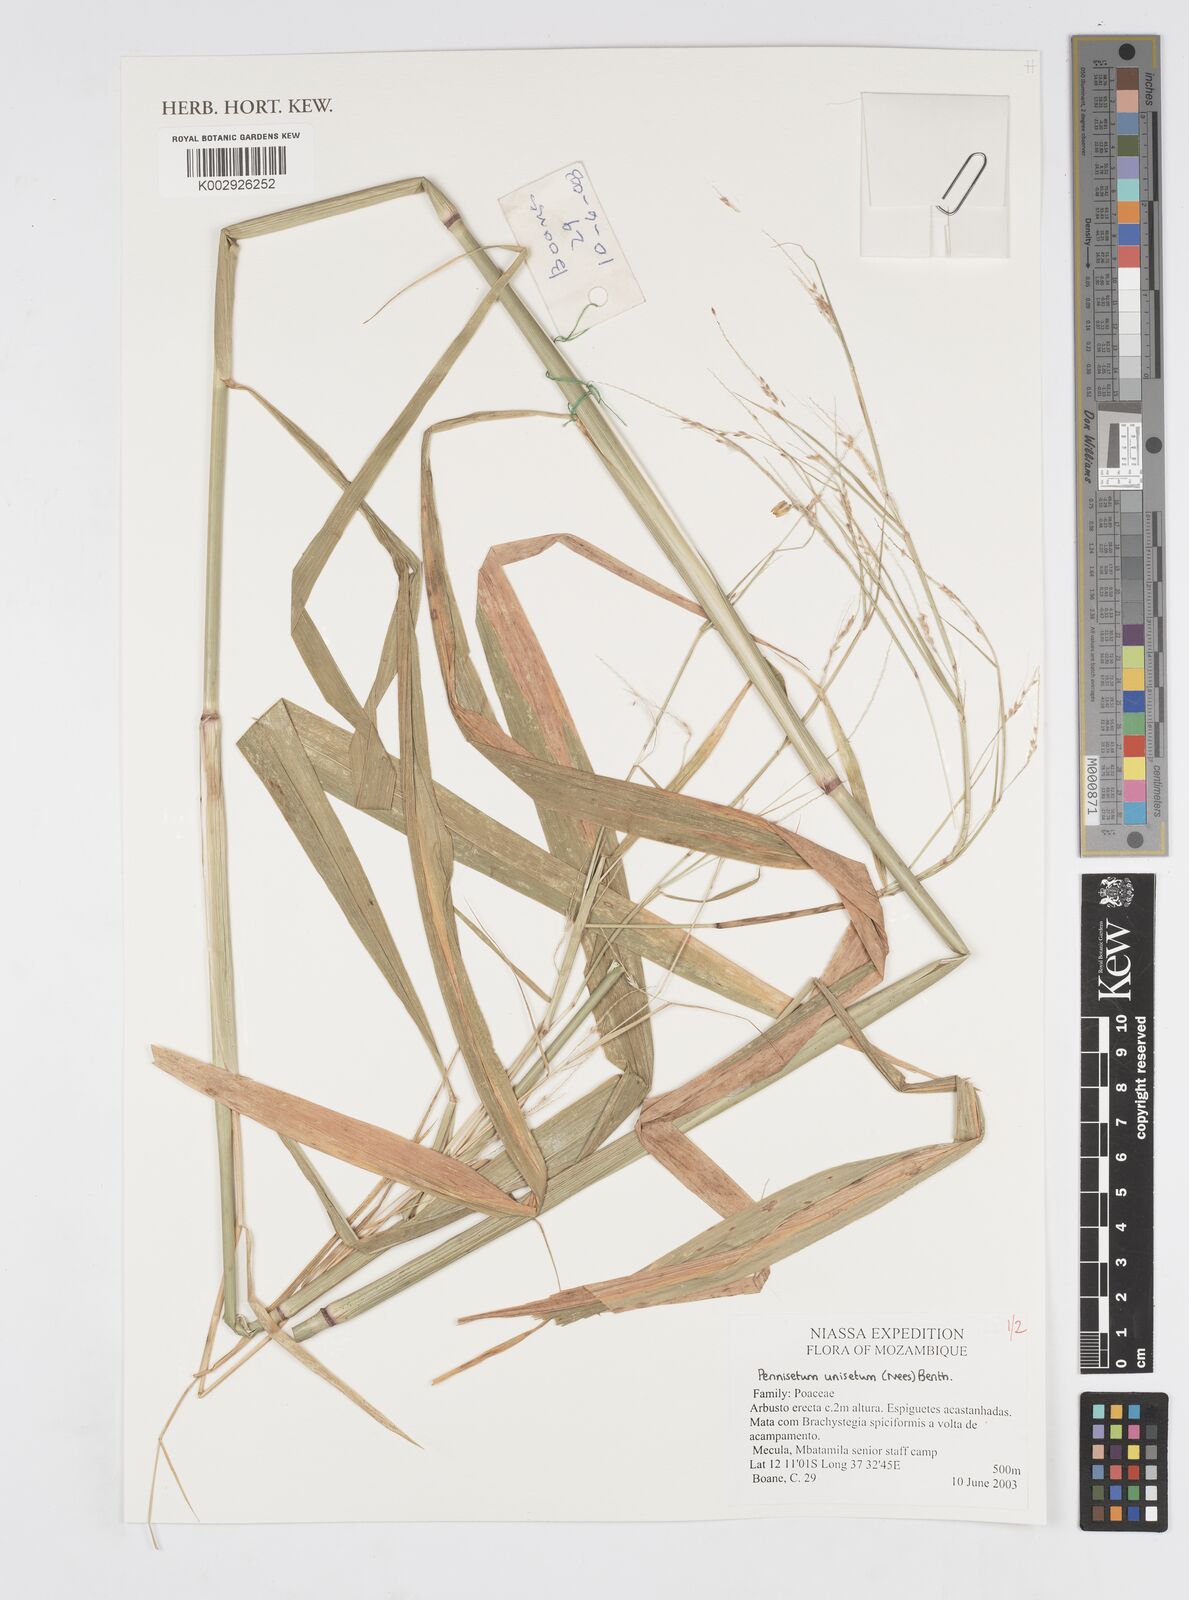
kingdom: Plantae
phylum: Tracheophyta
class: Liliopsida
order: Poales
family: Poaceae
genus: Cenchrus
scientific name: Cenchrus unisetus
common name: Natal grass
